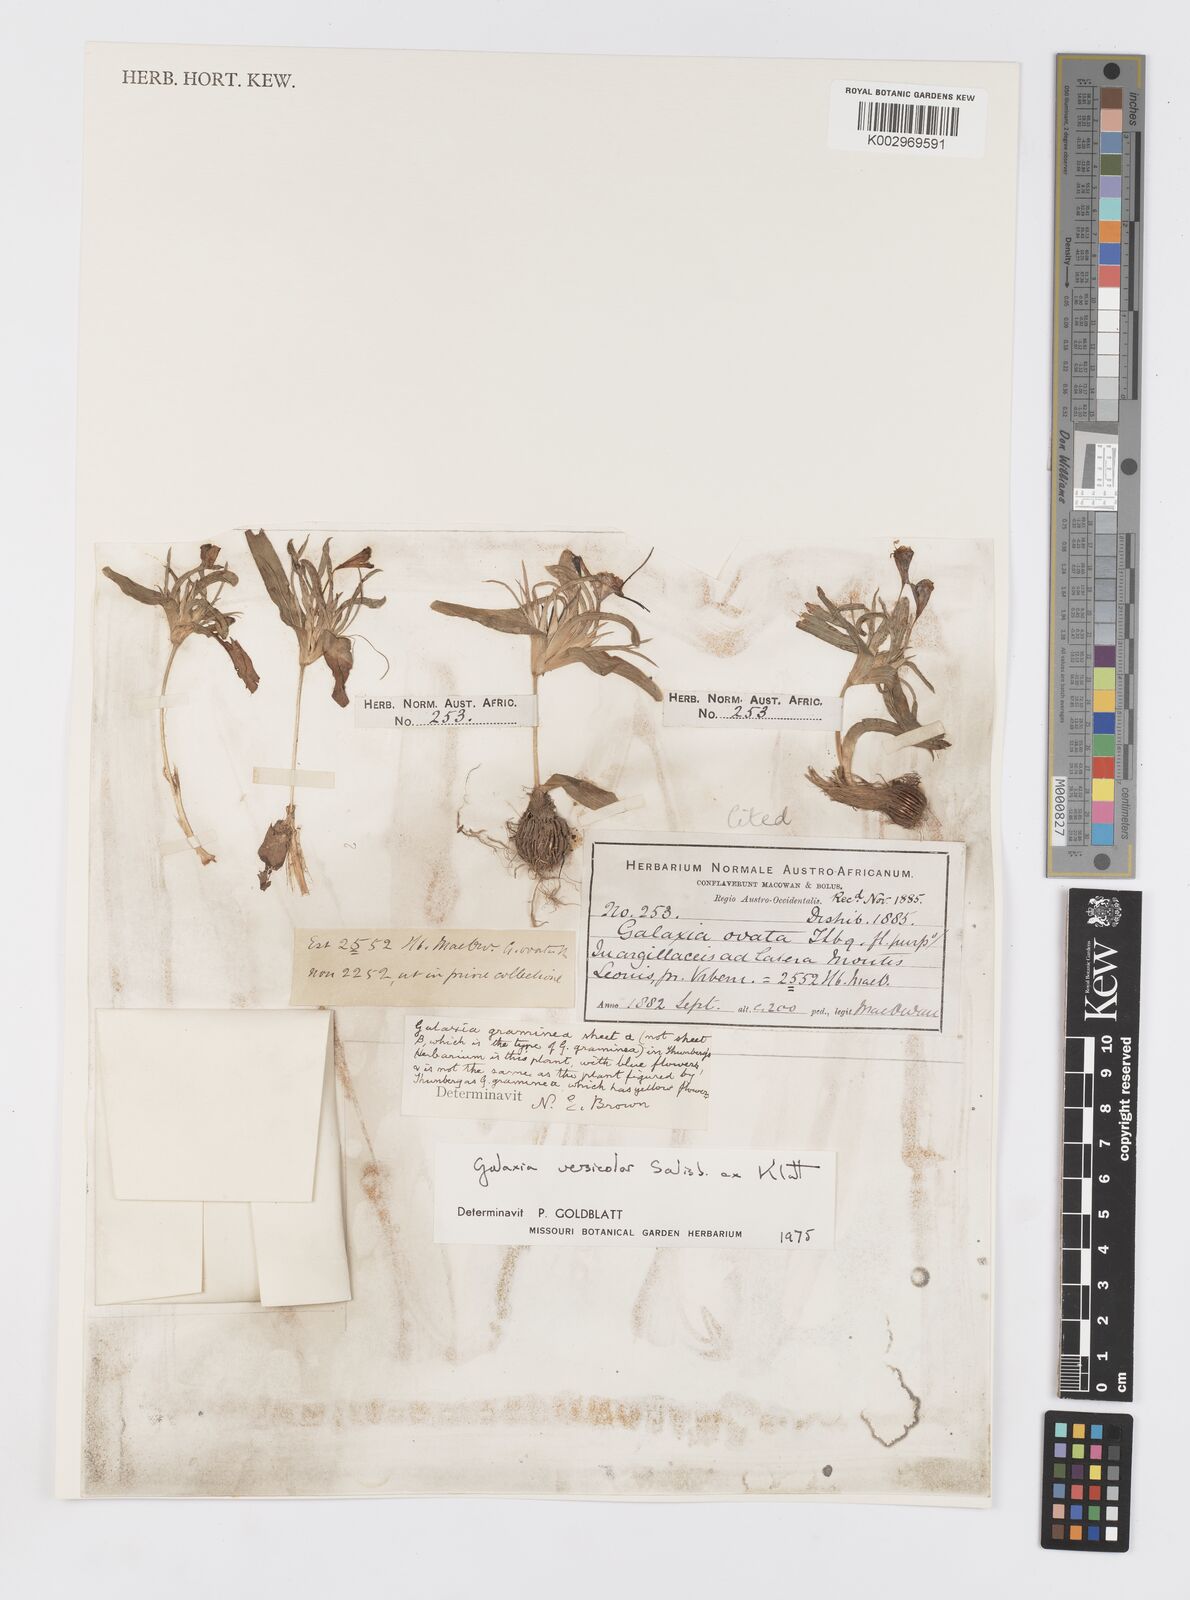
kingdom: Plantae
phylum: Tracheophyta
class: Liliopsida
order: Asparagales
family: Iridaceae
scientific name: Iridaceae
